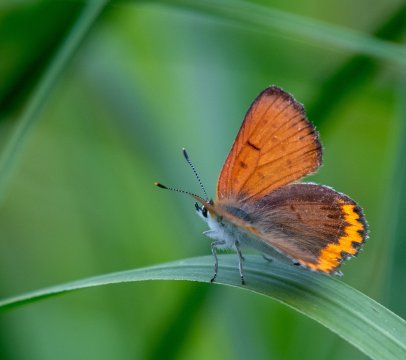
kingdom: Animalia
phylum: Arthropoda
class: Insecta
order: Lepidoptera
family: Sesiidae
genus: Sesia
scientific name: Sesia Lycaena hyllus
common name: Bronze Copper
